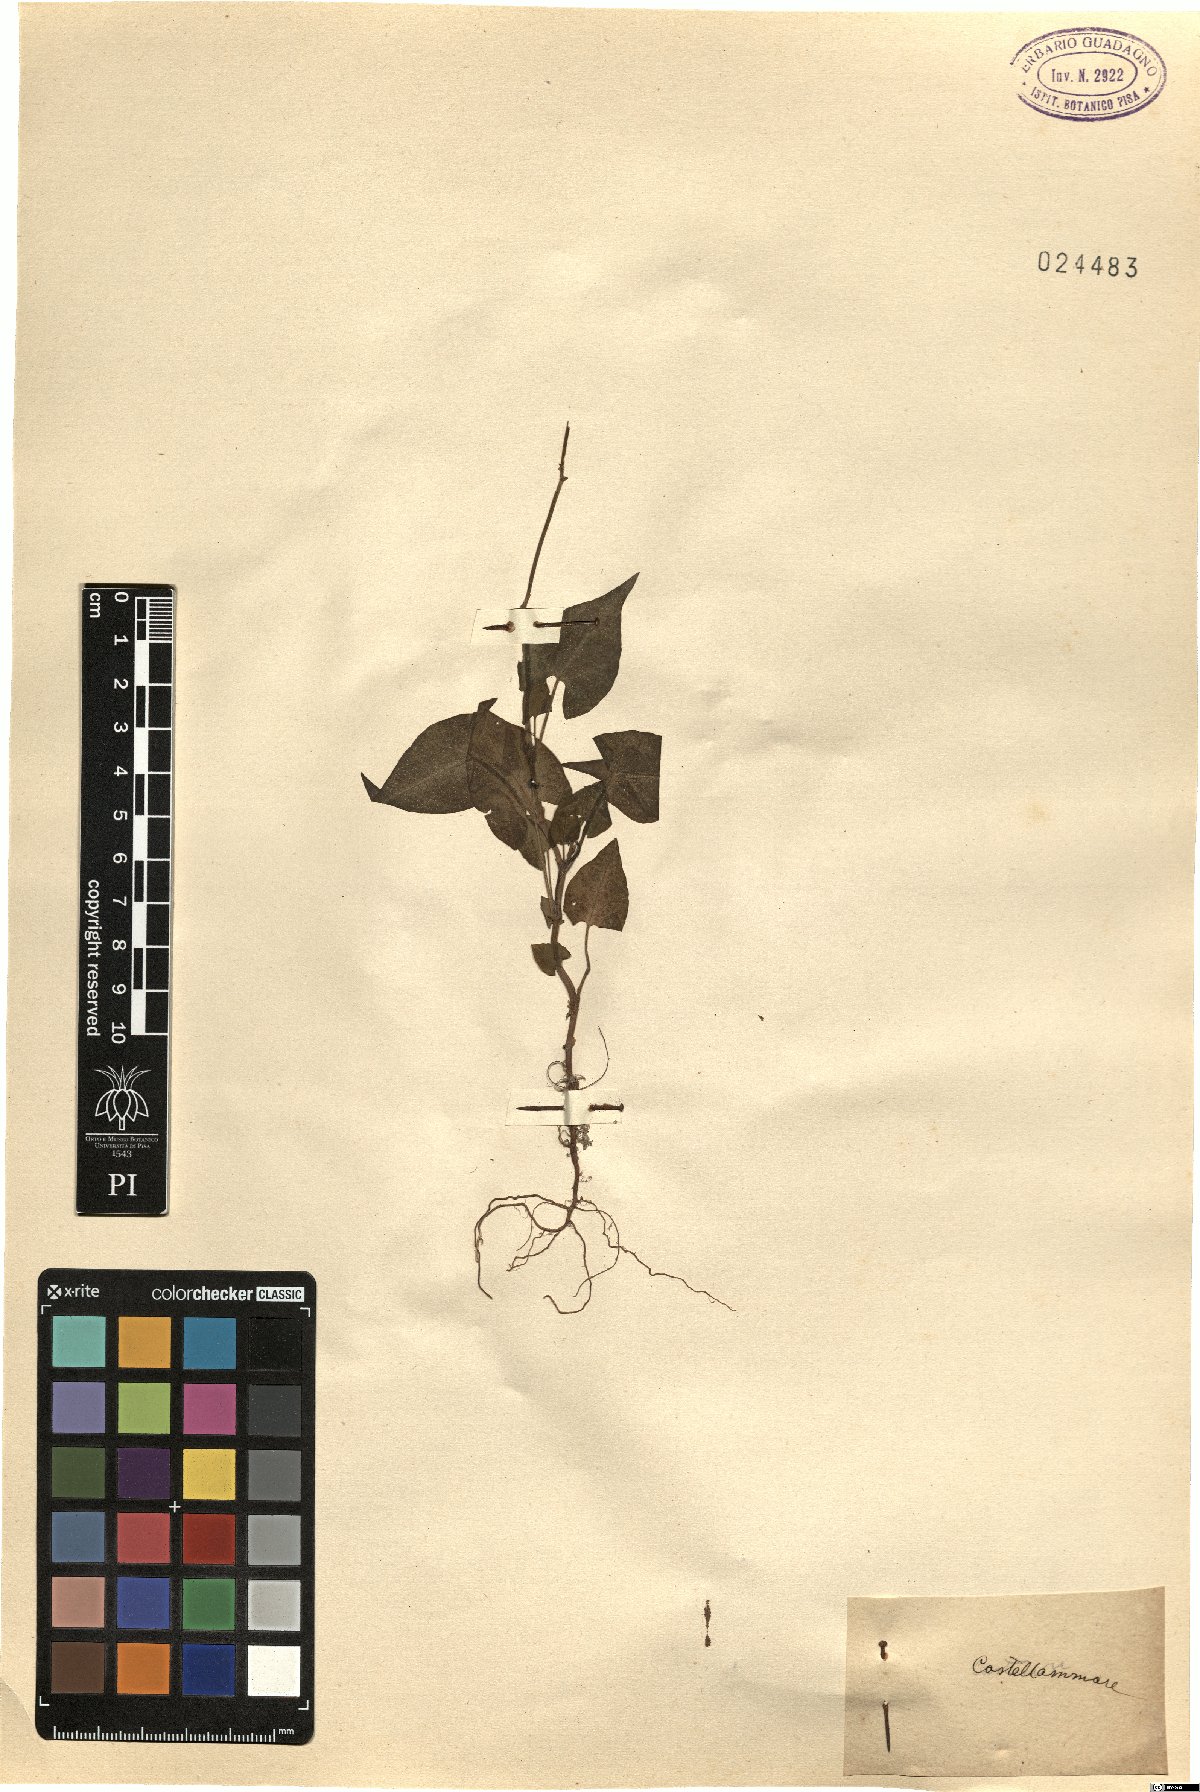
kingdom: Plantae
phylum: Tracheophyta
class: Magnoliopsida
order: Caryophyllales
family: Polygonaceae
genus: Polygonum
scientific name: Polygonum
